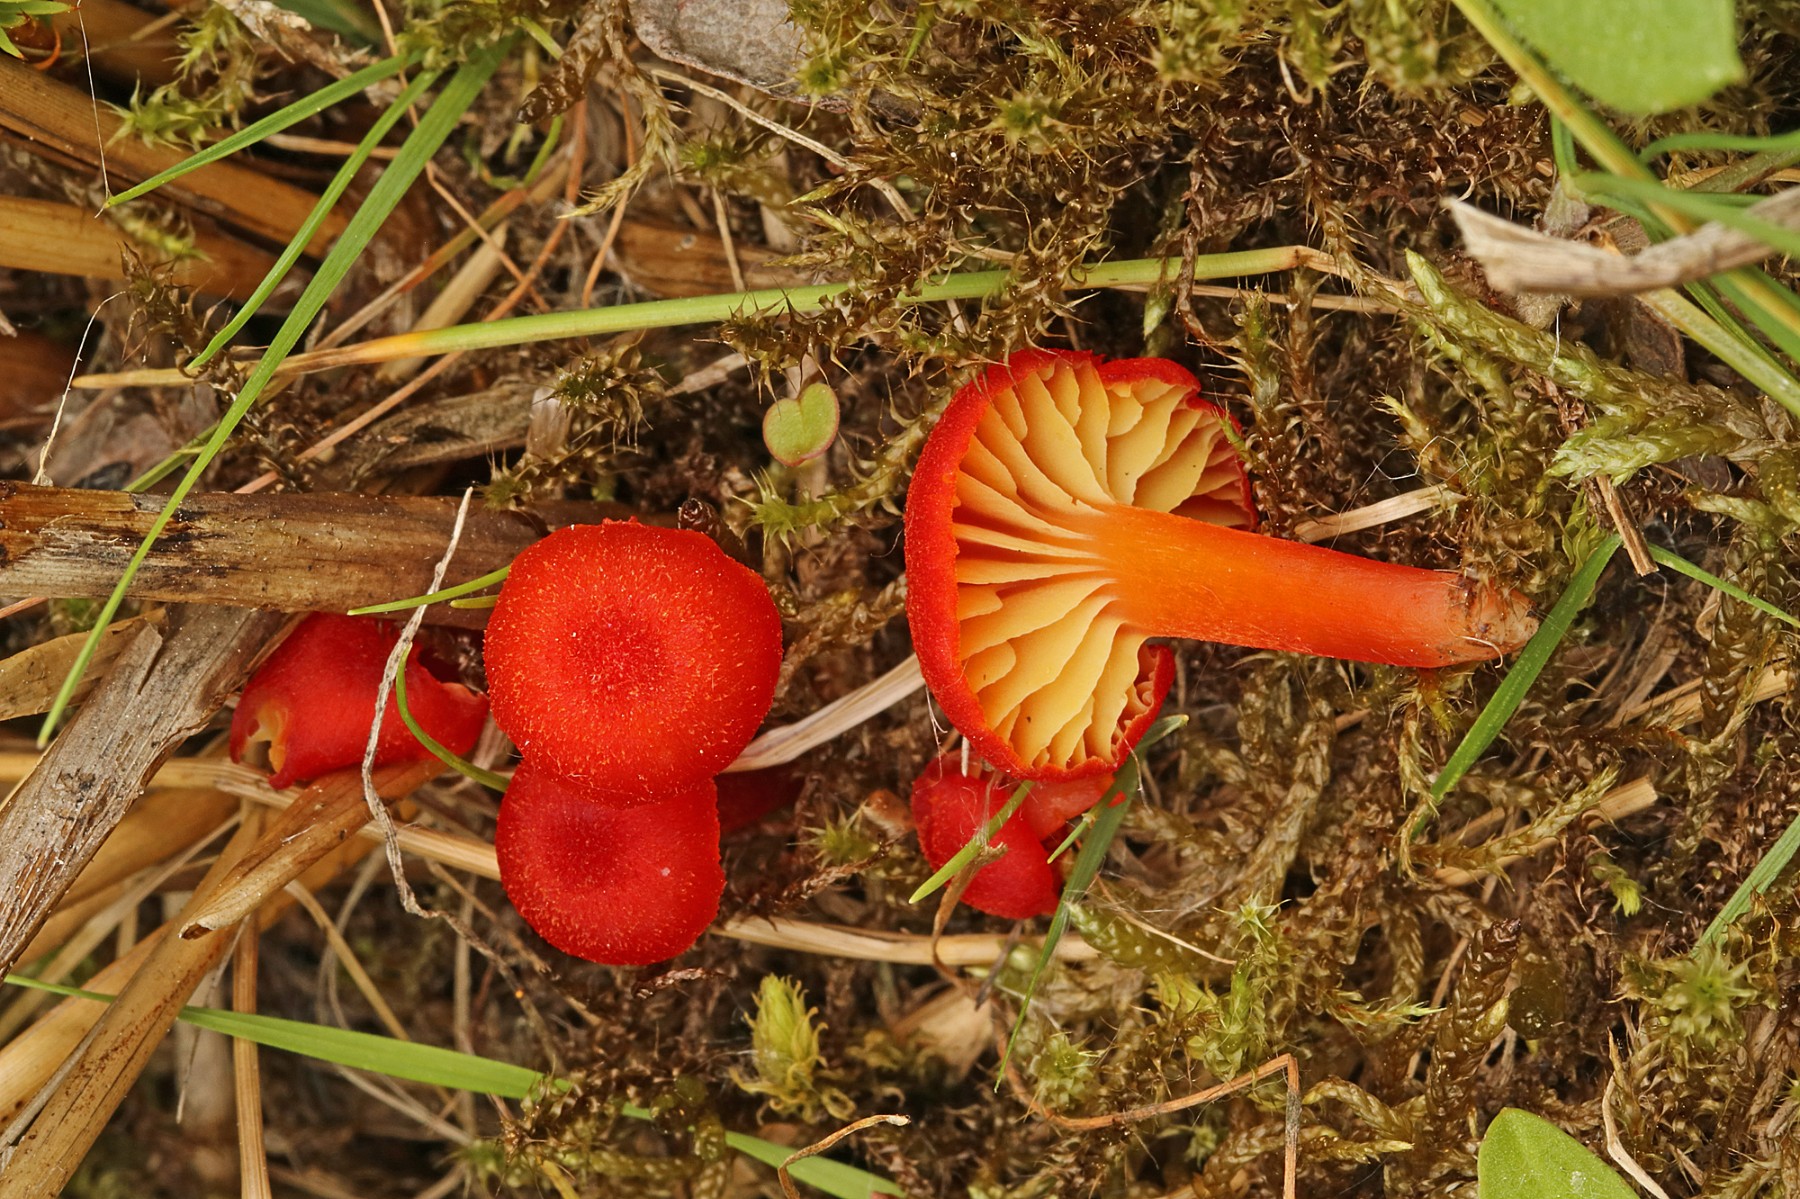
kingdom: Fungi
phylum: Basidiomycota
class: Agaricomycetes
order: Agaricales
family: Hygrophoraceae
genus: Hygrocybe
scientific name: Hygrocybe coccineocrenata
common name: tørvemos-vokshat
